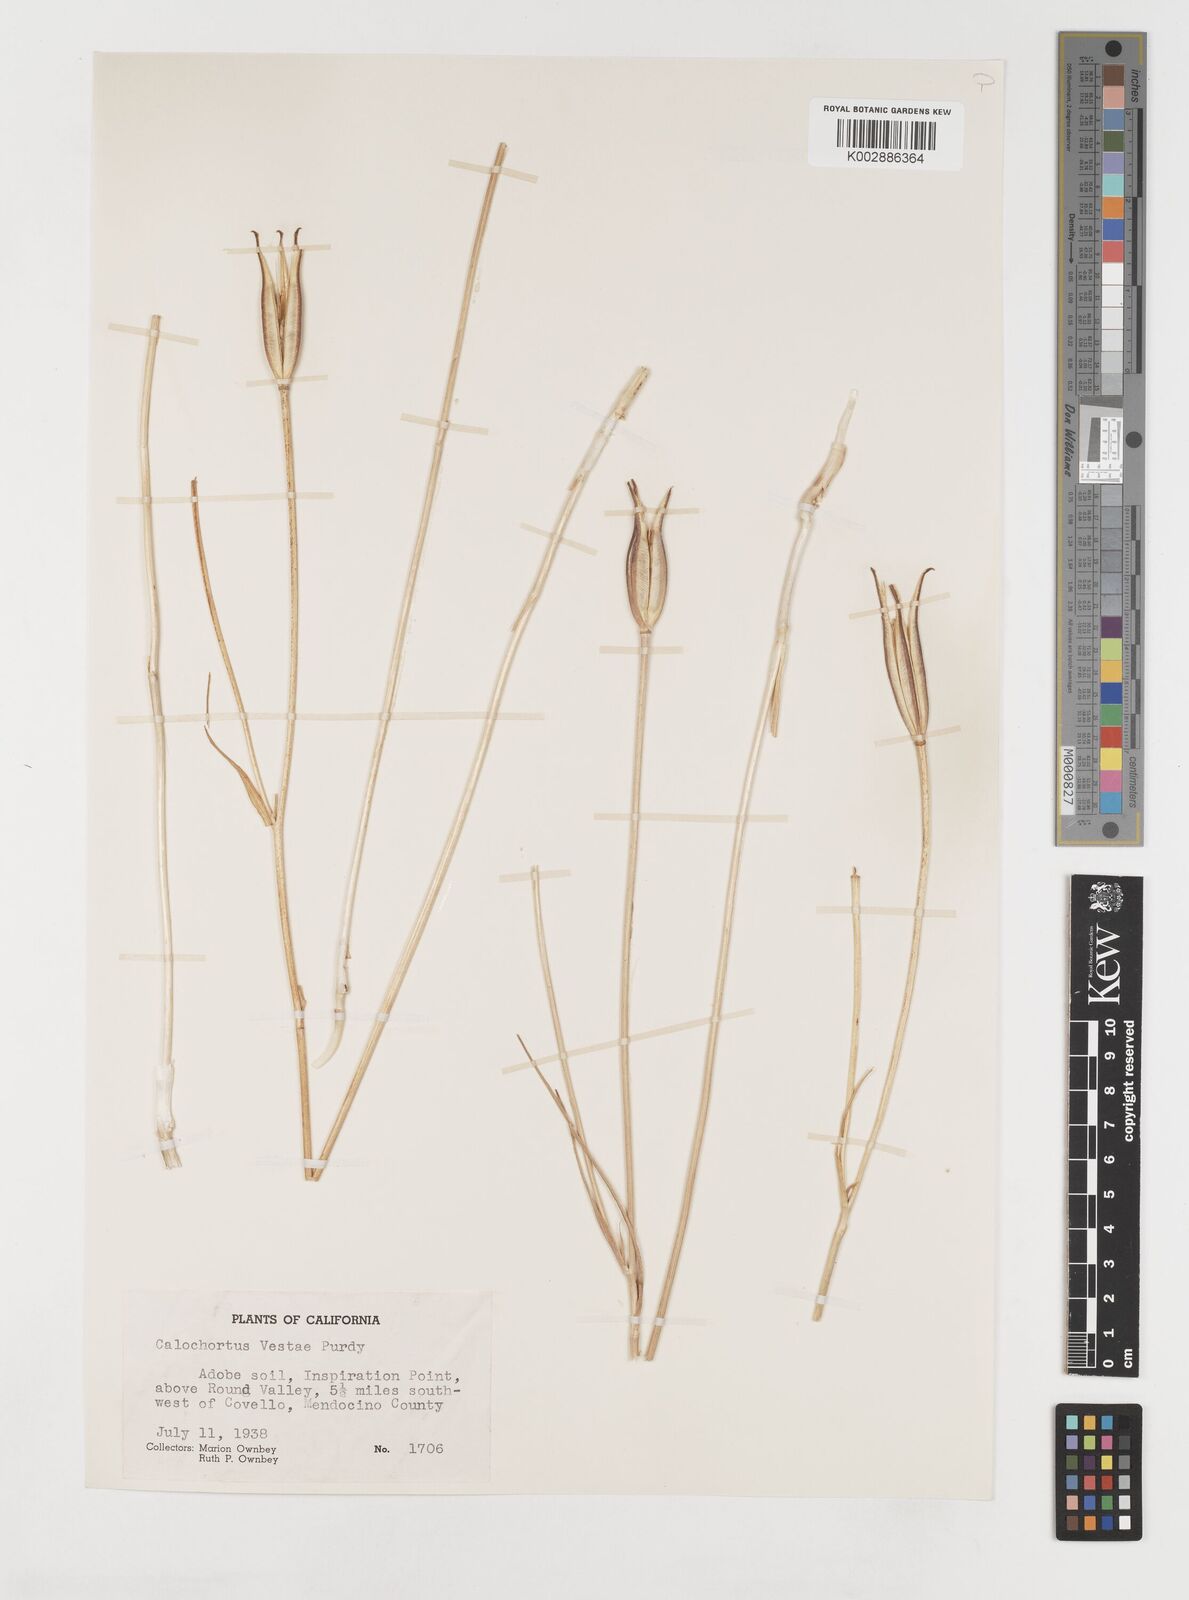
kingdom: Plantae
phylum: Tracheophyta
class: Liliopsida
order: Liliales
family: Liliaceae
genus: Calochortus
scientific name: Calochortus vestae
